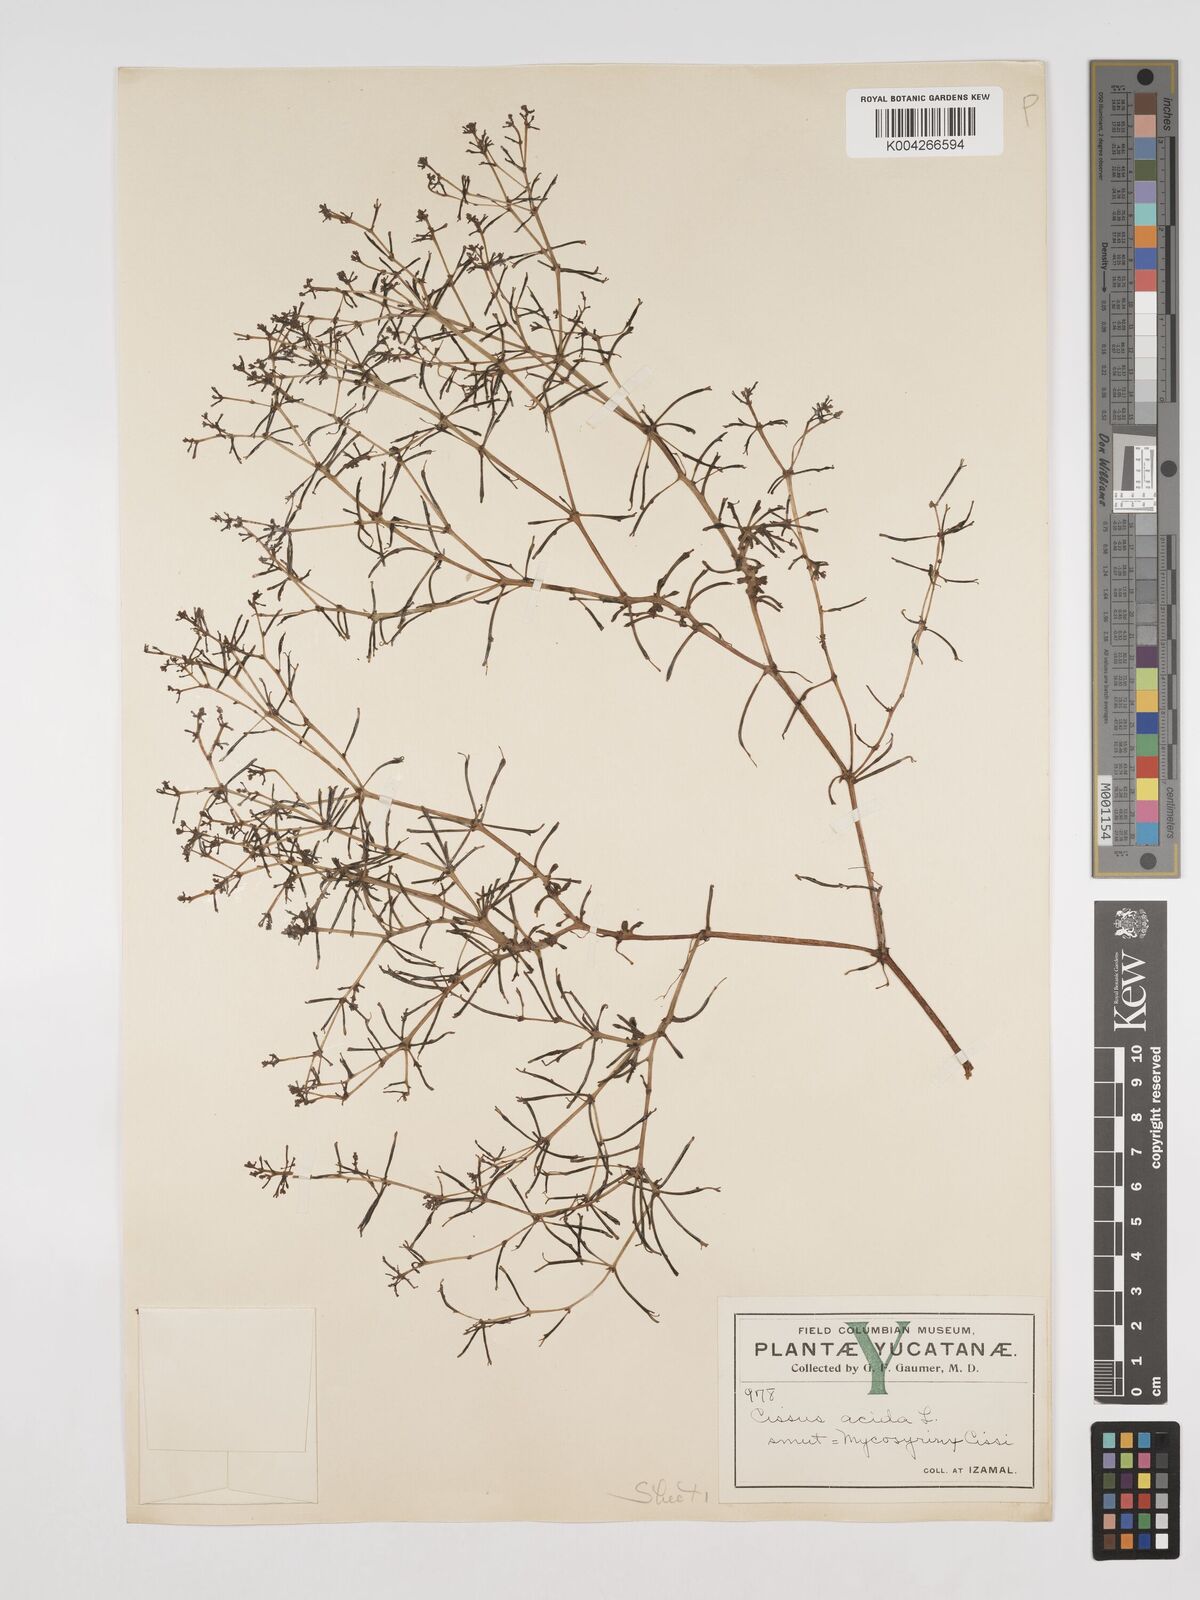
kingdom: Plantae
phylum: Tracheophyta
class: Magnoliopsida
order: Vitales
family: Vitaceae
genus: Cissus
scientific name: Cissus trifoliata
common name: Vine-sorrel
